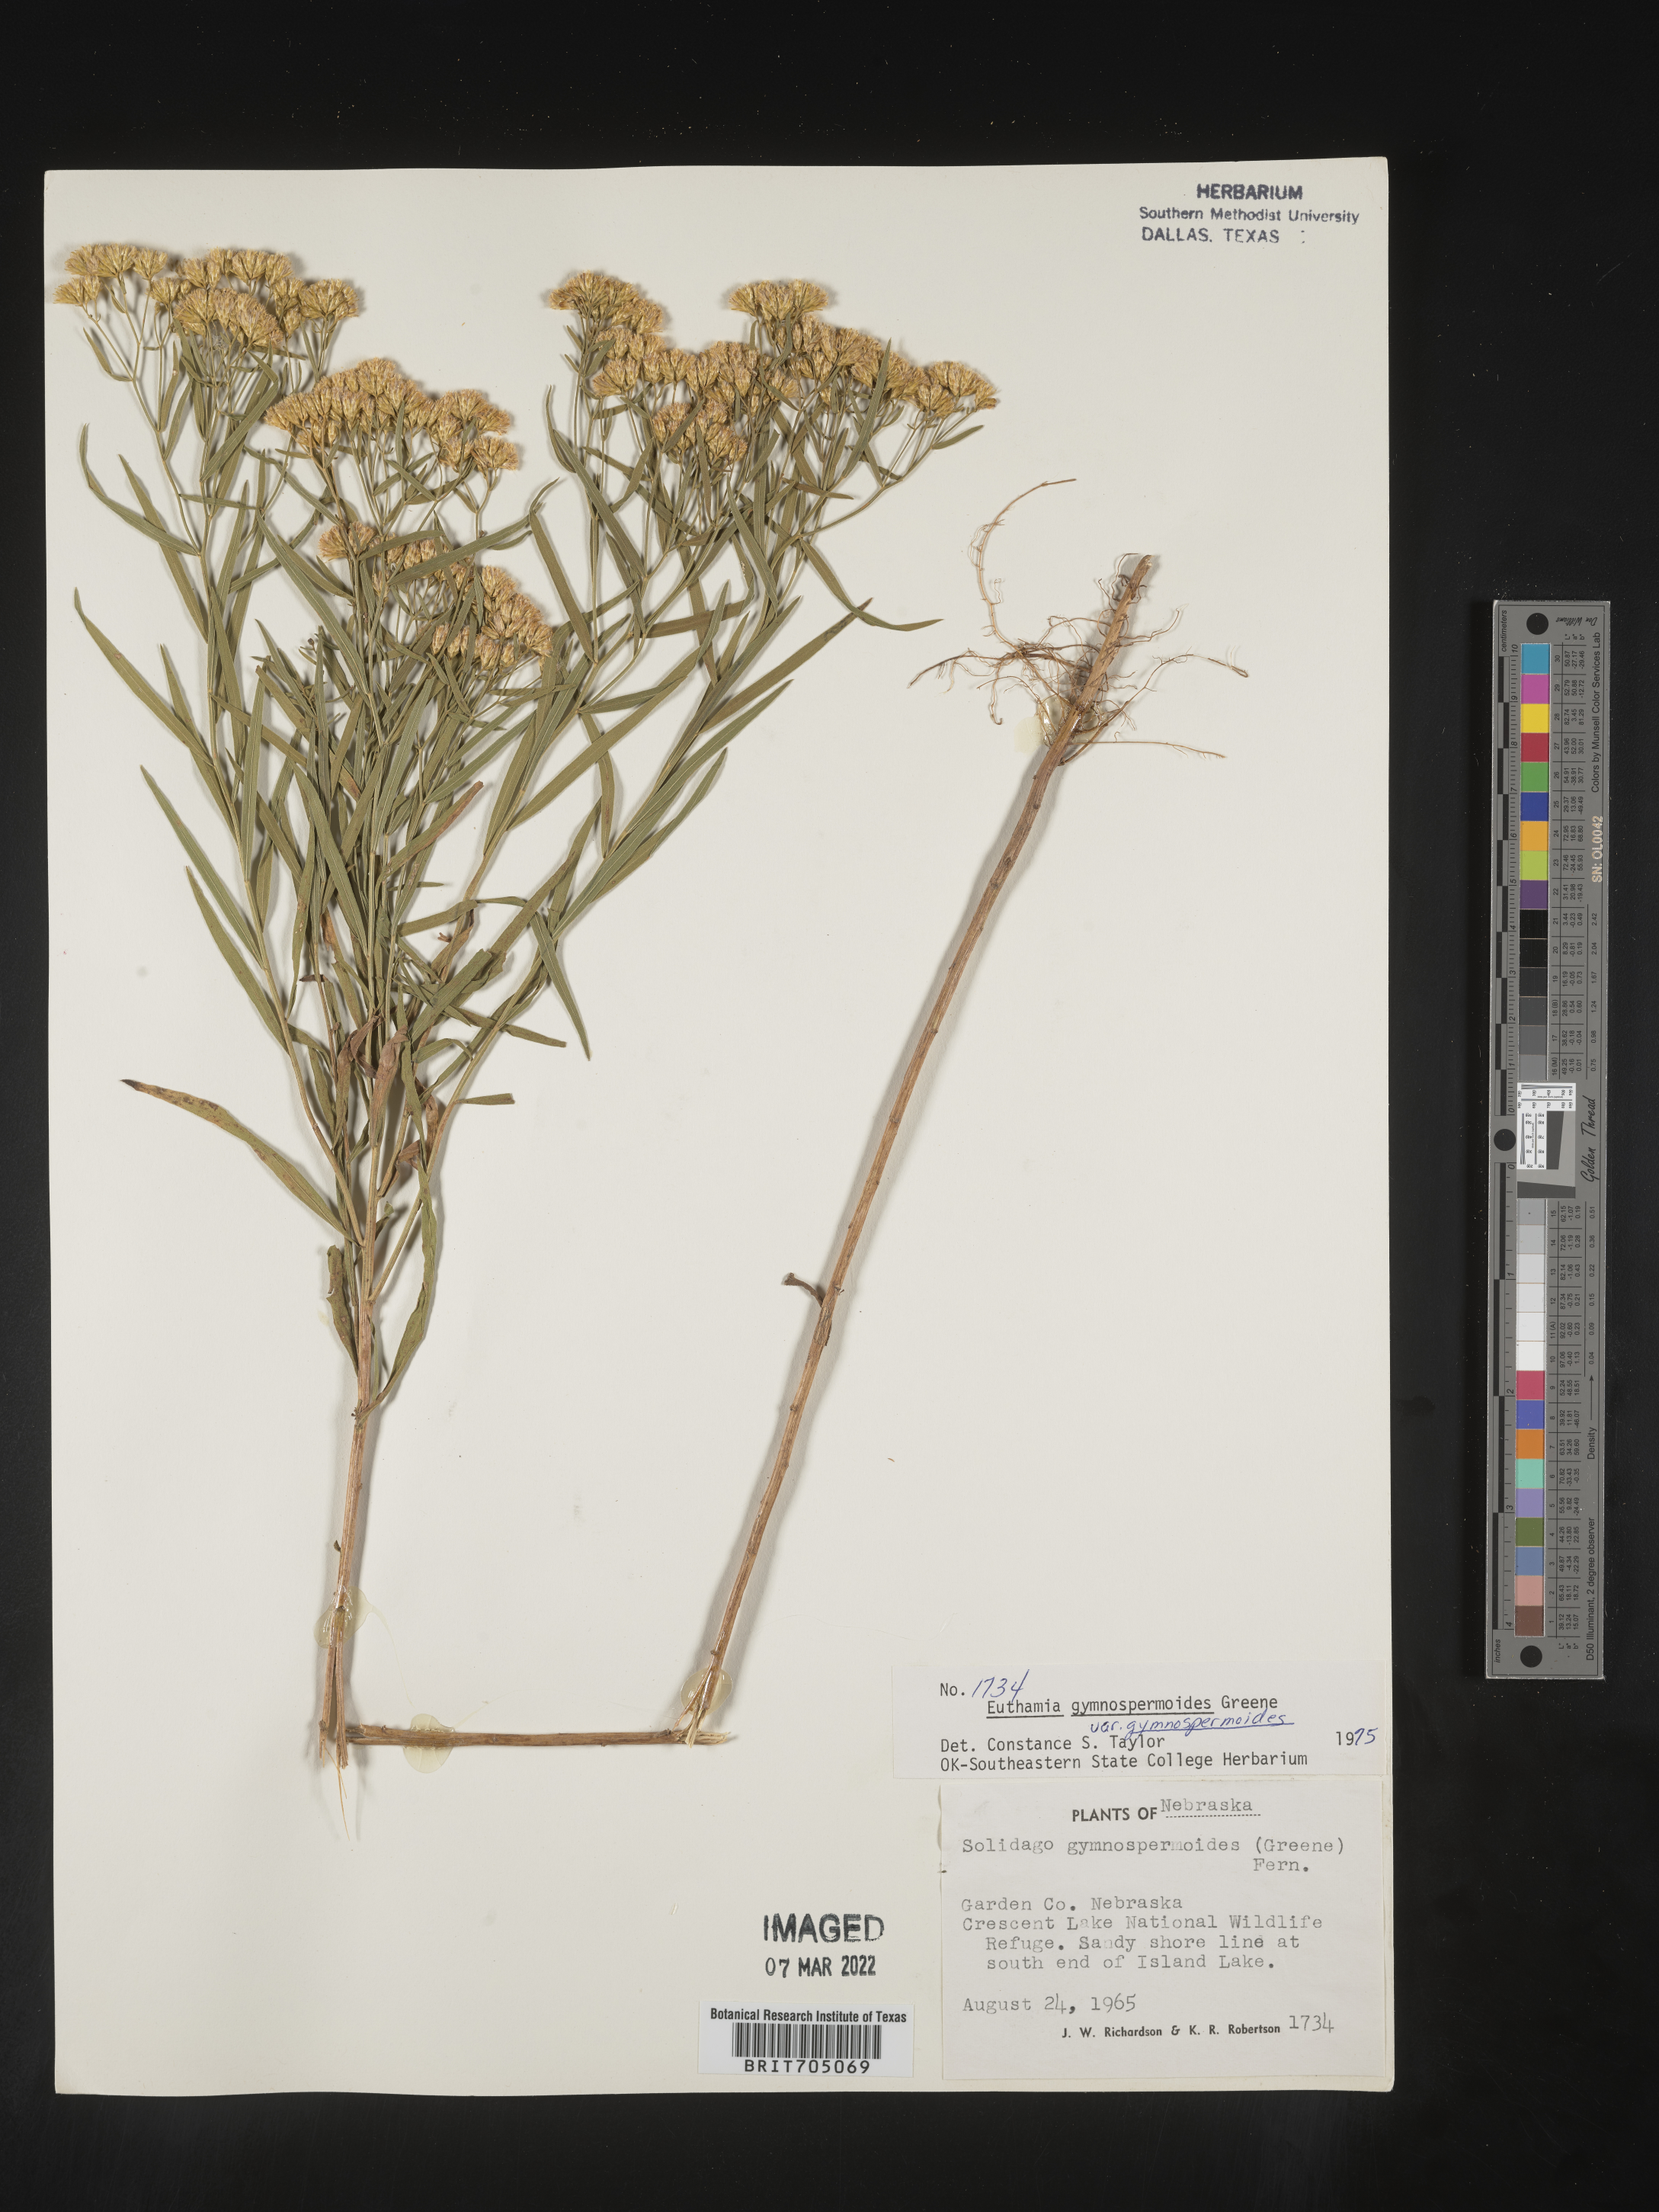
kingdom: Plantae
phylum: Tracheophyta
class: Magnoliopsida
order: Asterales
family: Asteraceae
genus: Euthamia
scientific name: Euthamia gymnospermoides
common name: Great plains goldentop
